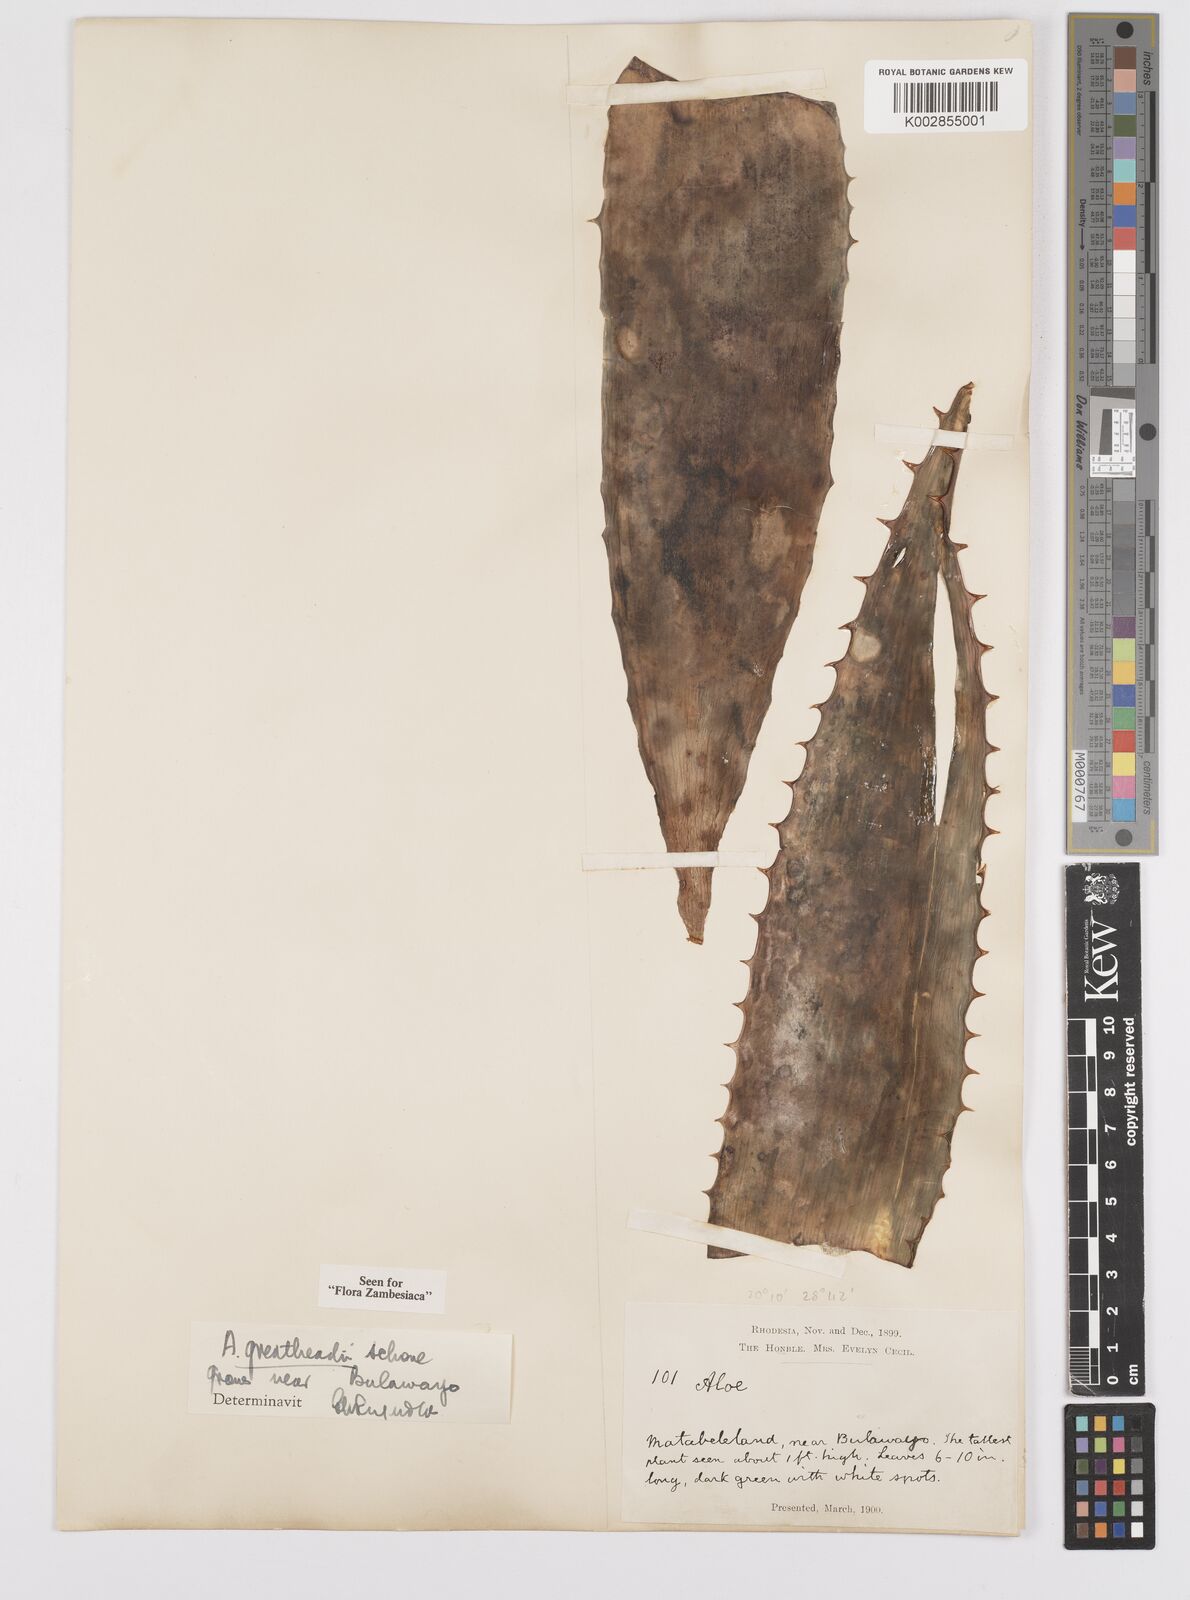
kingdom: Plantae
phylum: Tracheophyta
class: Liliopsida
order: Asparagales
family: Asphodelaceae
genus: Aloe
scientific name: Aloe greatheadii
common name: Greathead's aloe
